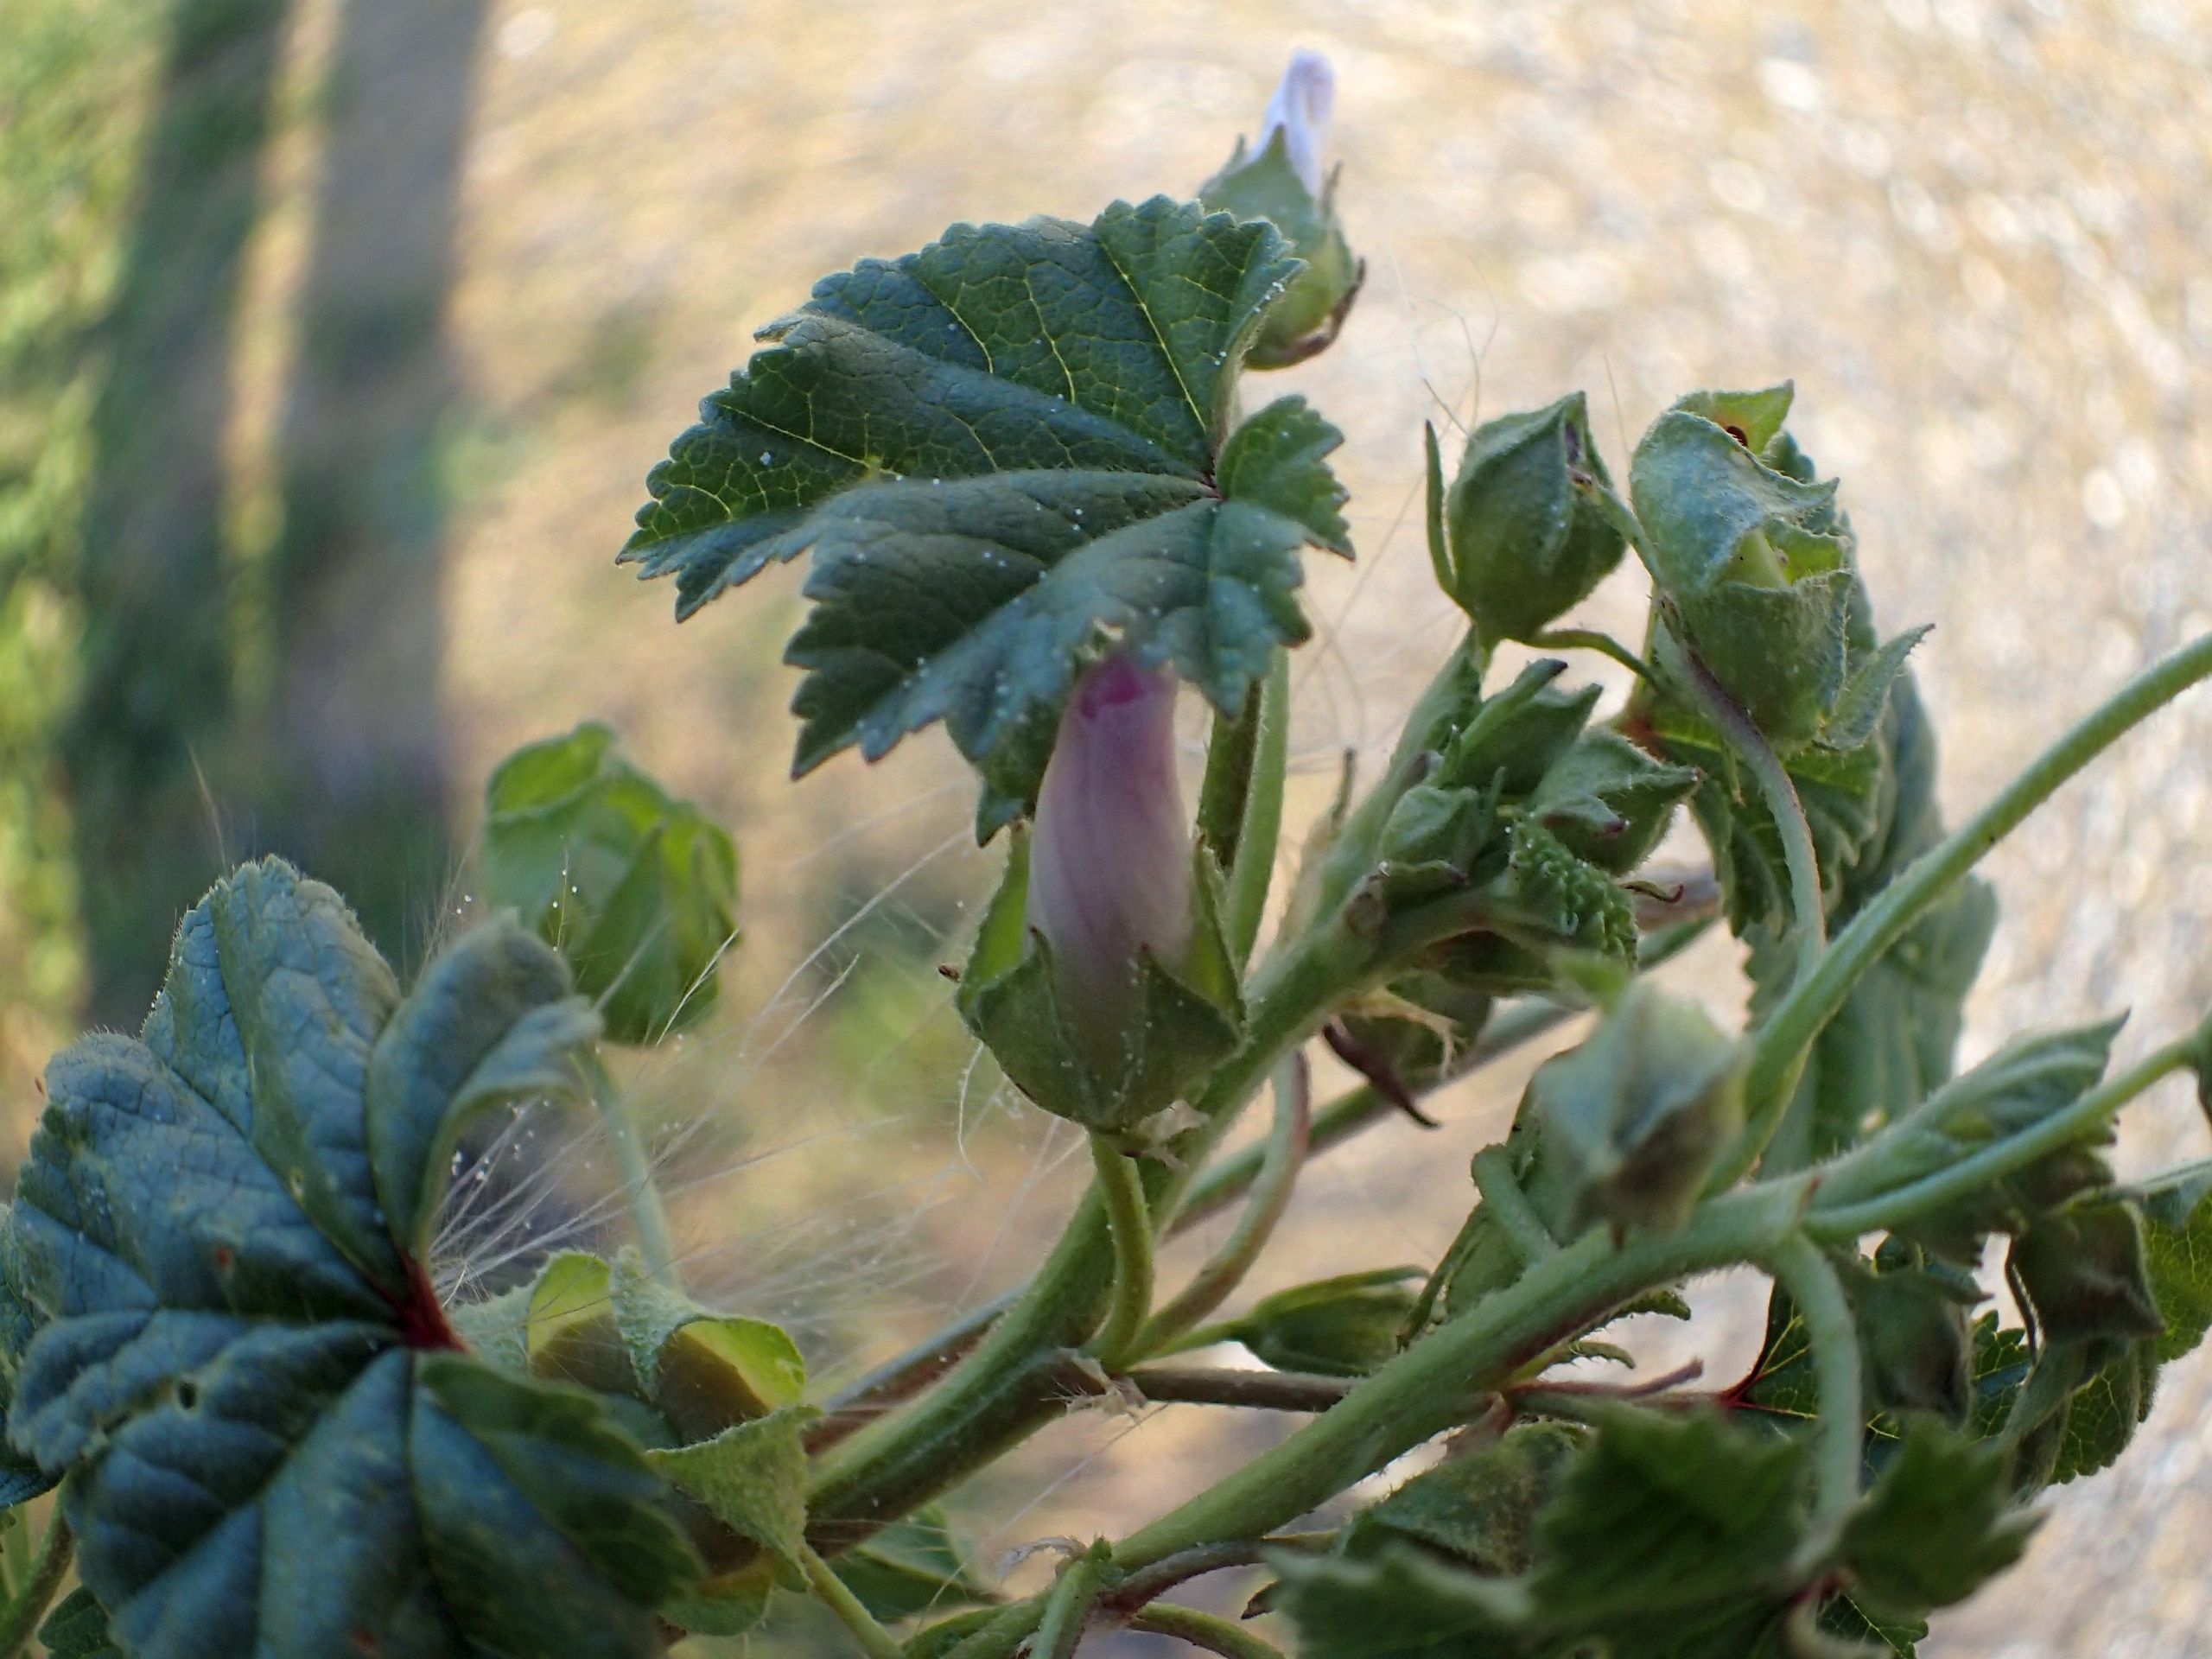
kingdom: Plantae
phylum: Tracheophyta
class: Magnoliopsida
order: Malvales
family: Malvaceae
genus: Malva
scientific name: Malva neglecta
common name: Rundbladet katost
